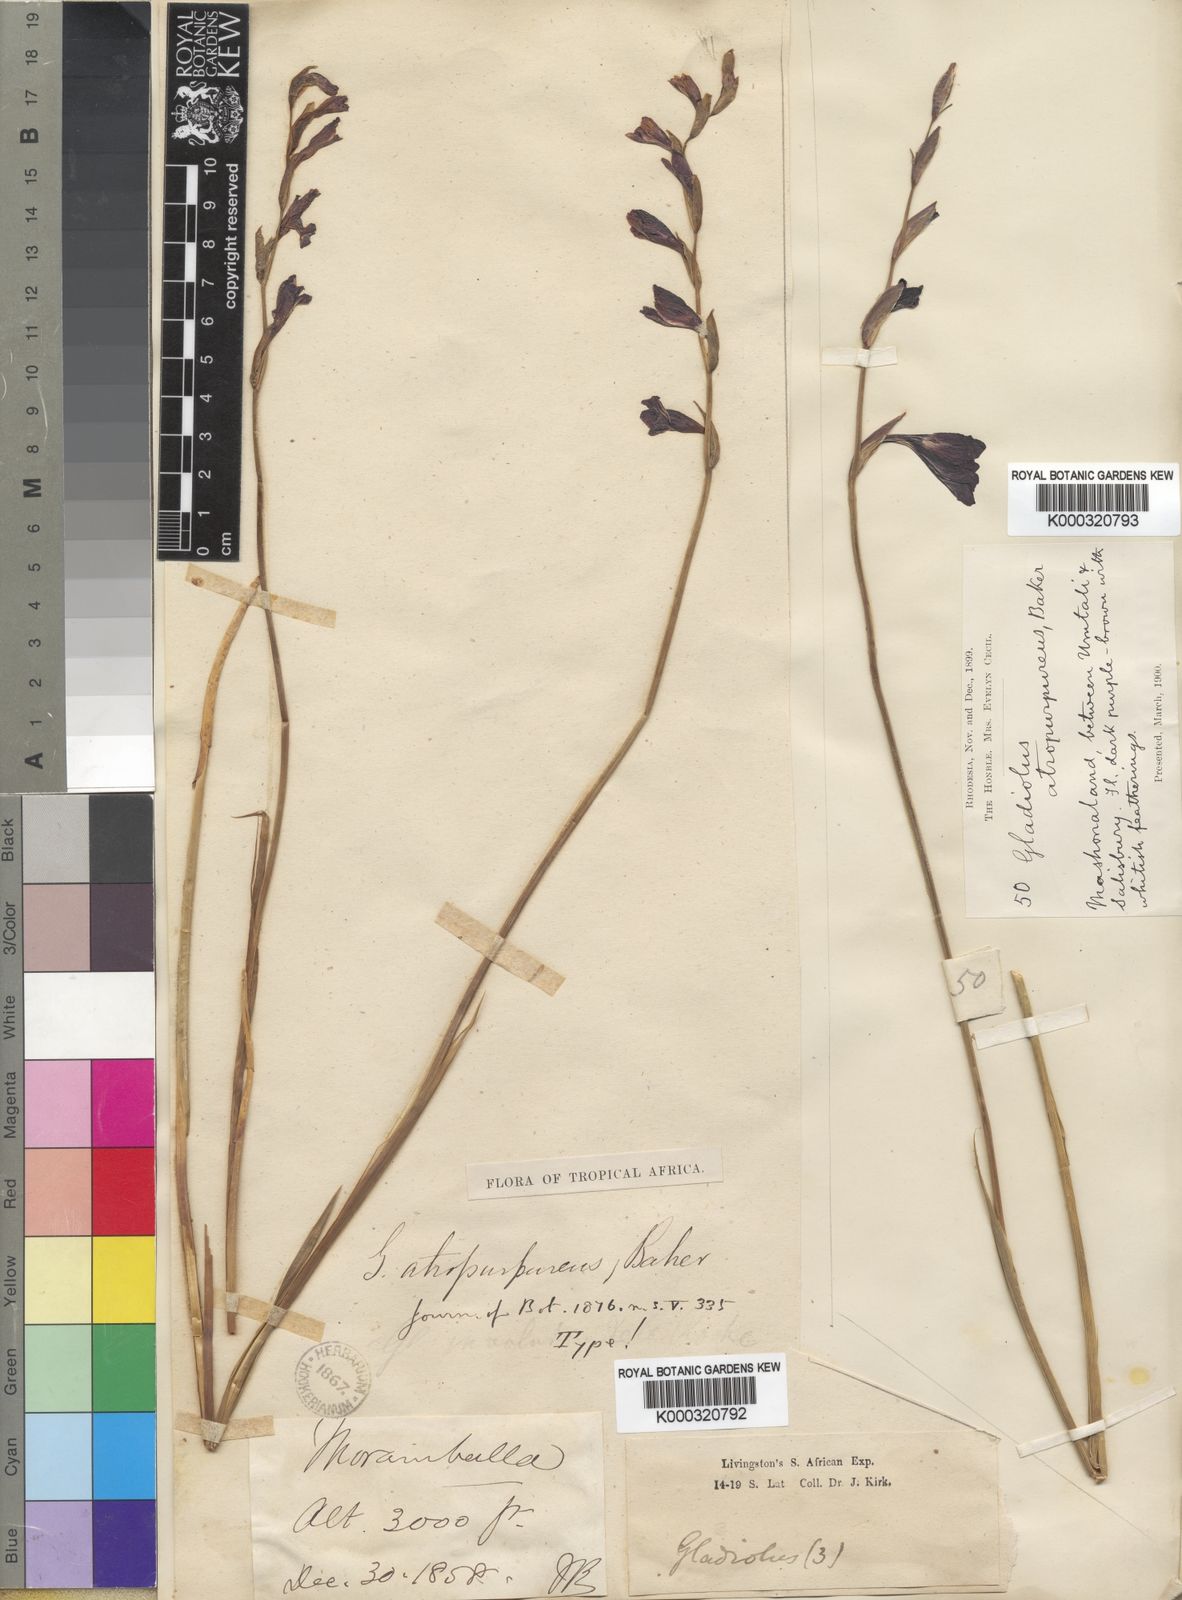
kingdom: Plantae
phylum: Tracheophyta
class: Liliopsida
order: Asparagales
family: Iridaceae
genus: Gladiolus
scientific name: Gladiolus atropurpureus
